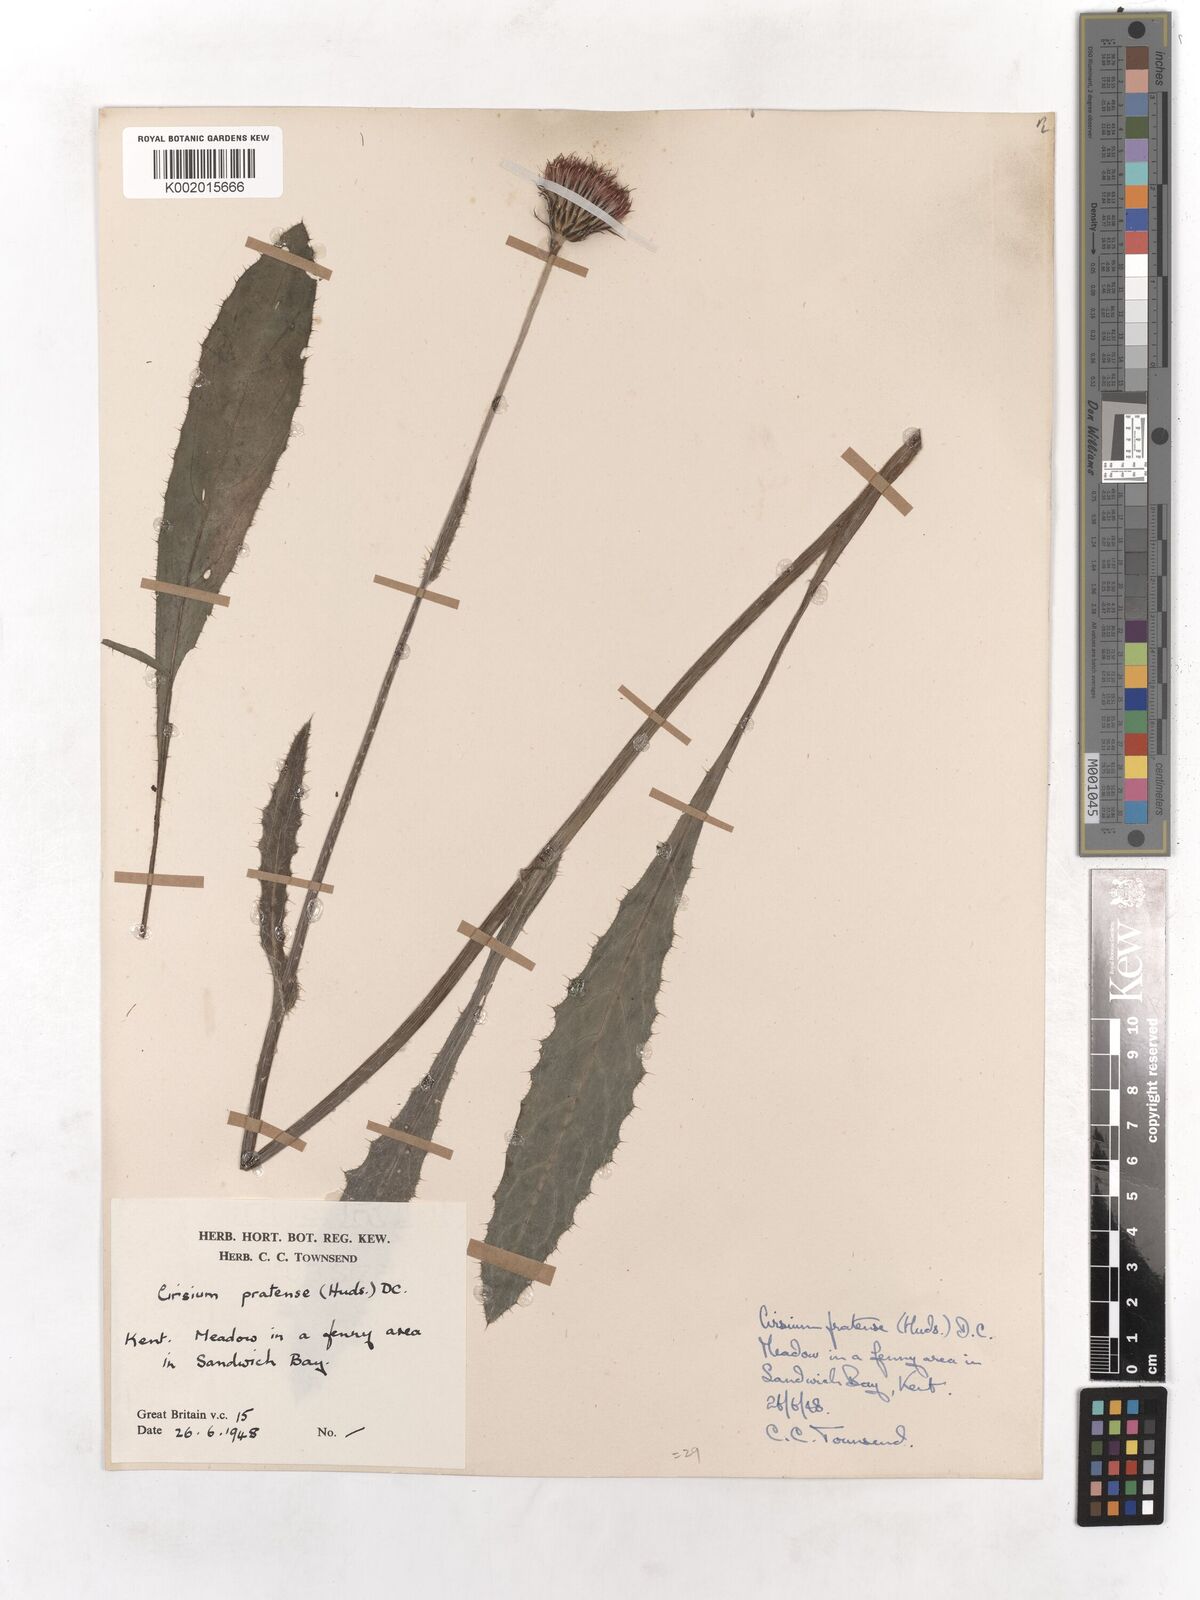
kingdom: Plantae
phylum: Tracheophyta
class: Magnoliopsida
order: Asterales
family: Asteraceae
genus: Cirsium
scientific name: Cirsium dissectum
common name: Meadow thistle
